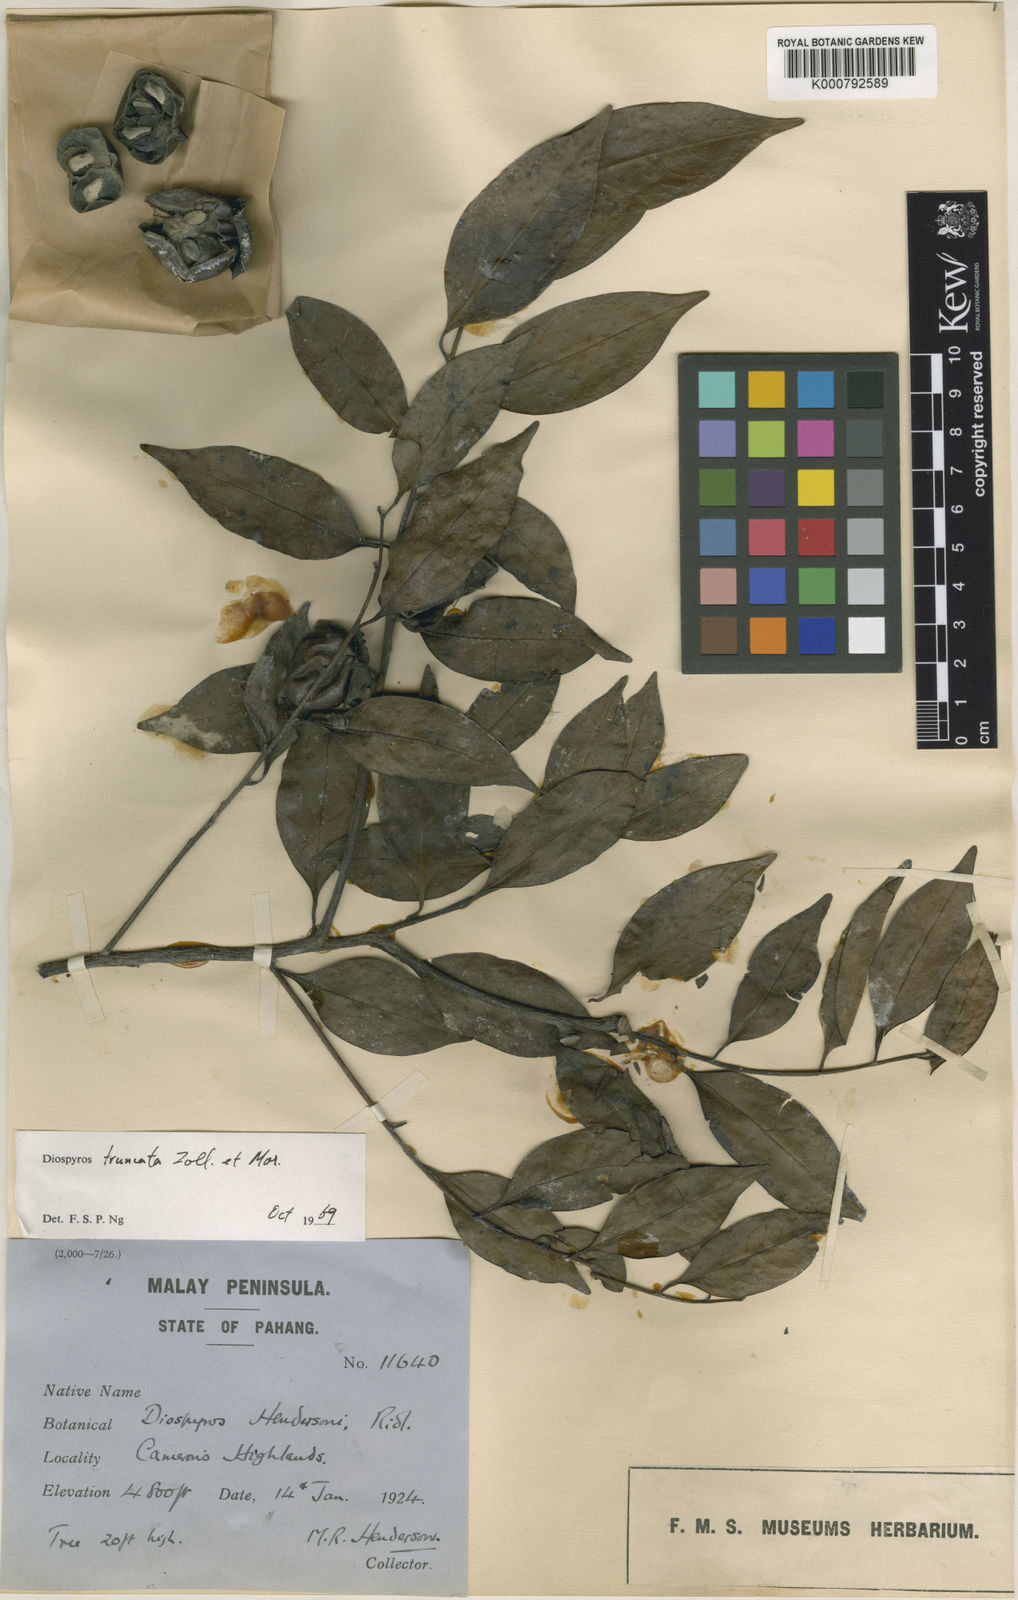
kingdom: Plantae
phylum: Tracheophyta
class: Magnoliopsida
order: Ericales
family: Ebenaceae
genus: Diospyros
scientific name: Diospyros sumatrana
